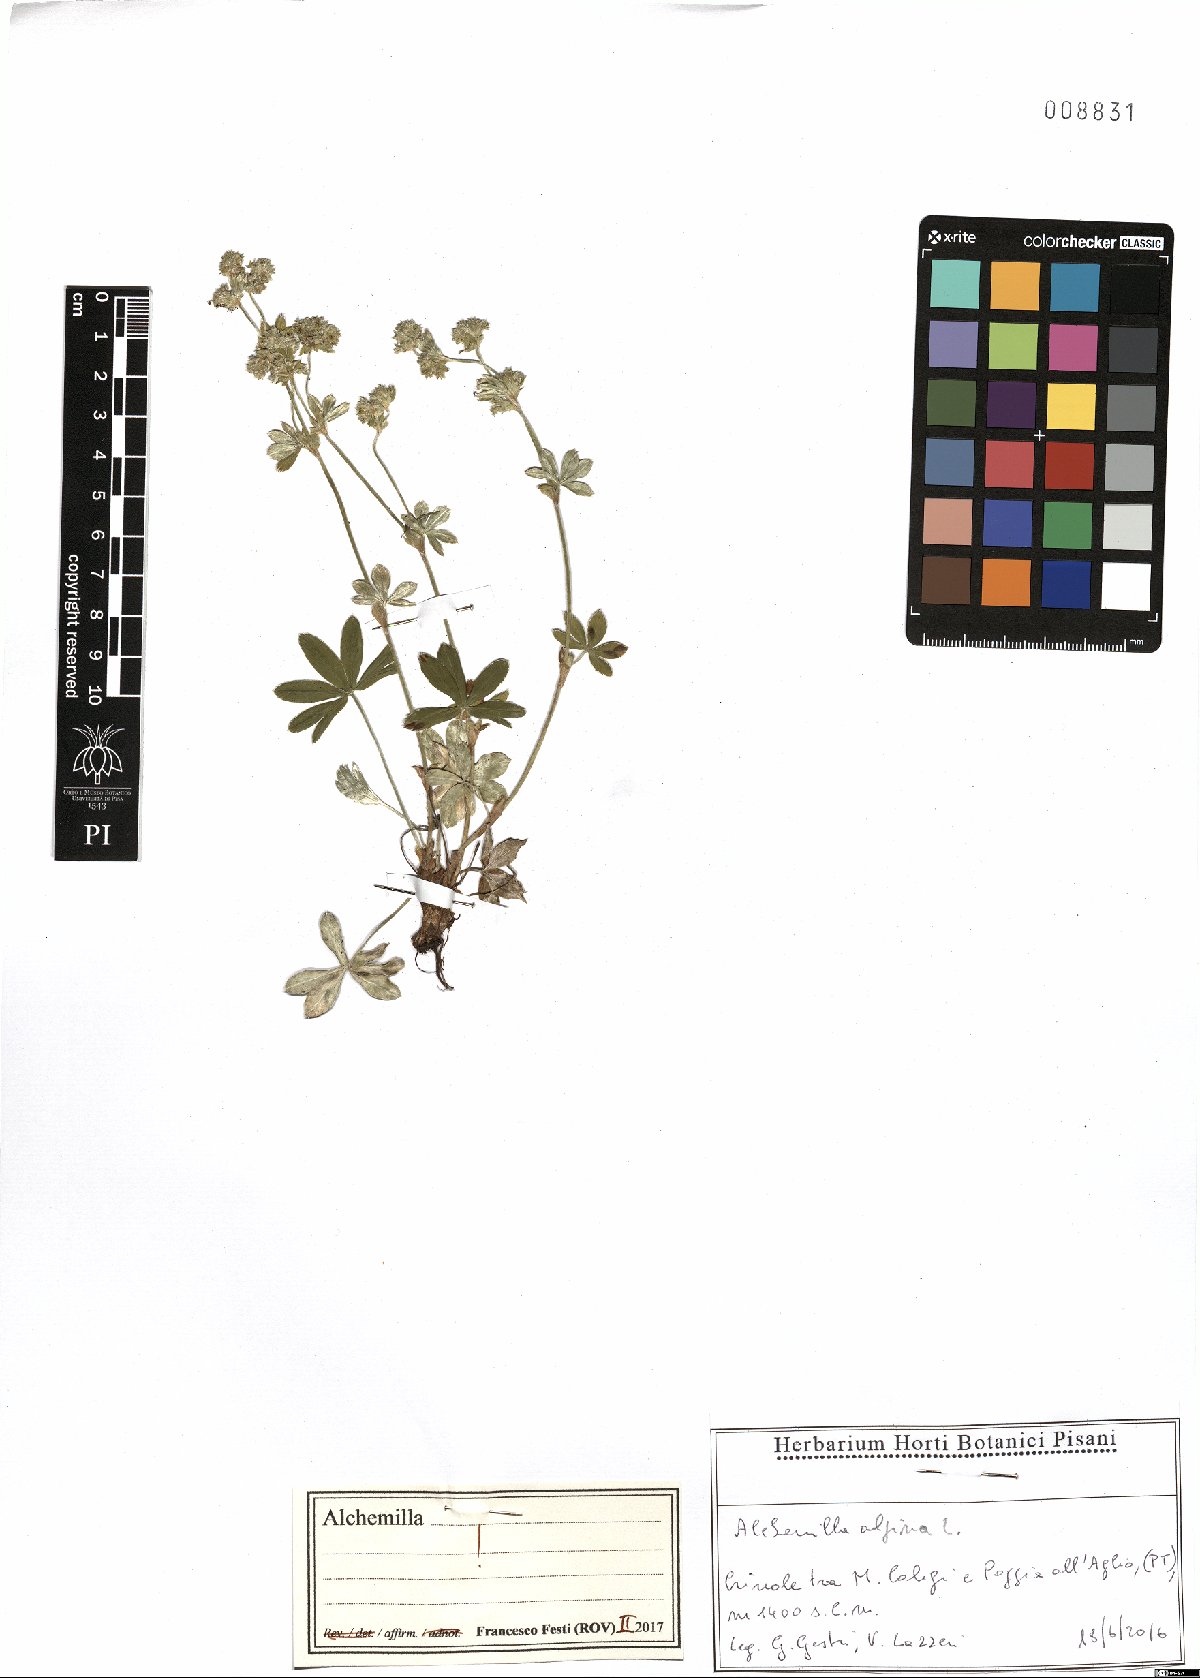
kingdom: Plantae
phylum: Tracheophyta
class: Magnoliopsida
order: Rosales
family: Rosaceae
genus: Alchemilla
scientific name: Alchemilla alpina
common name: Alpine lady's-mantle
